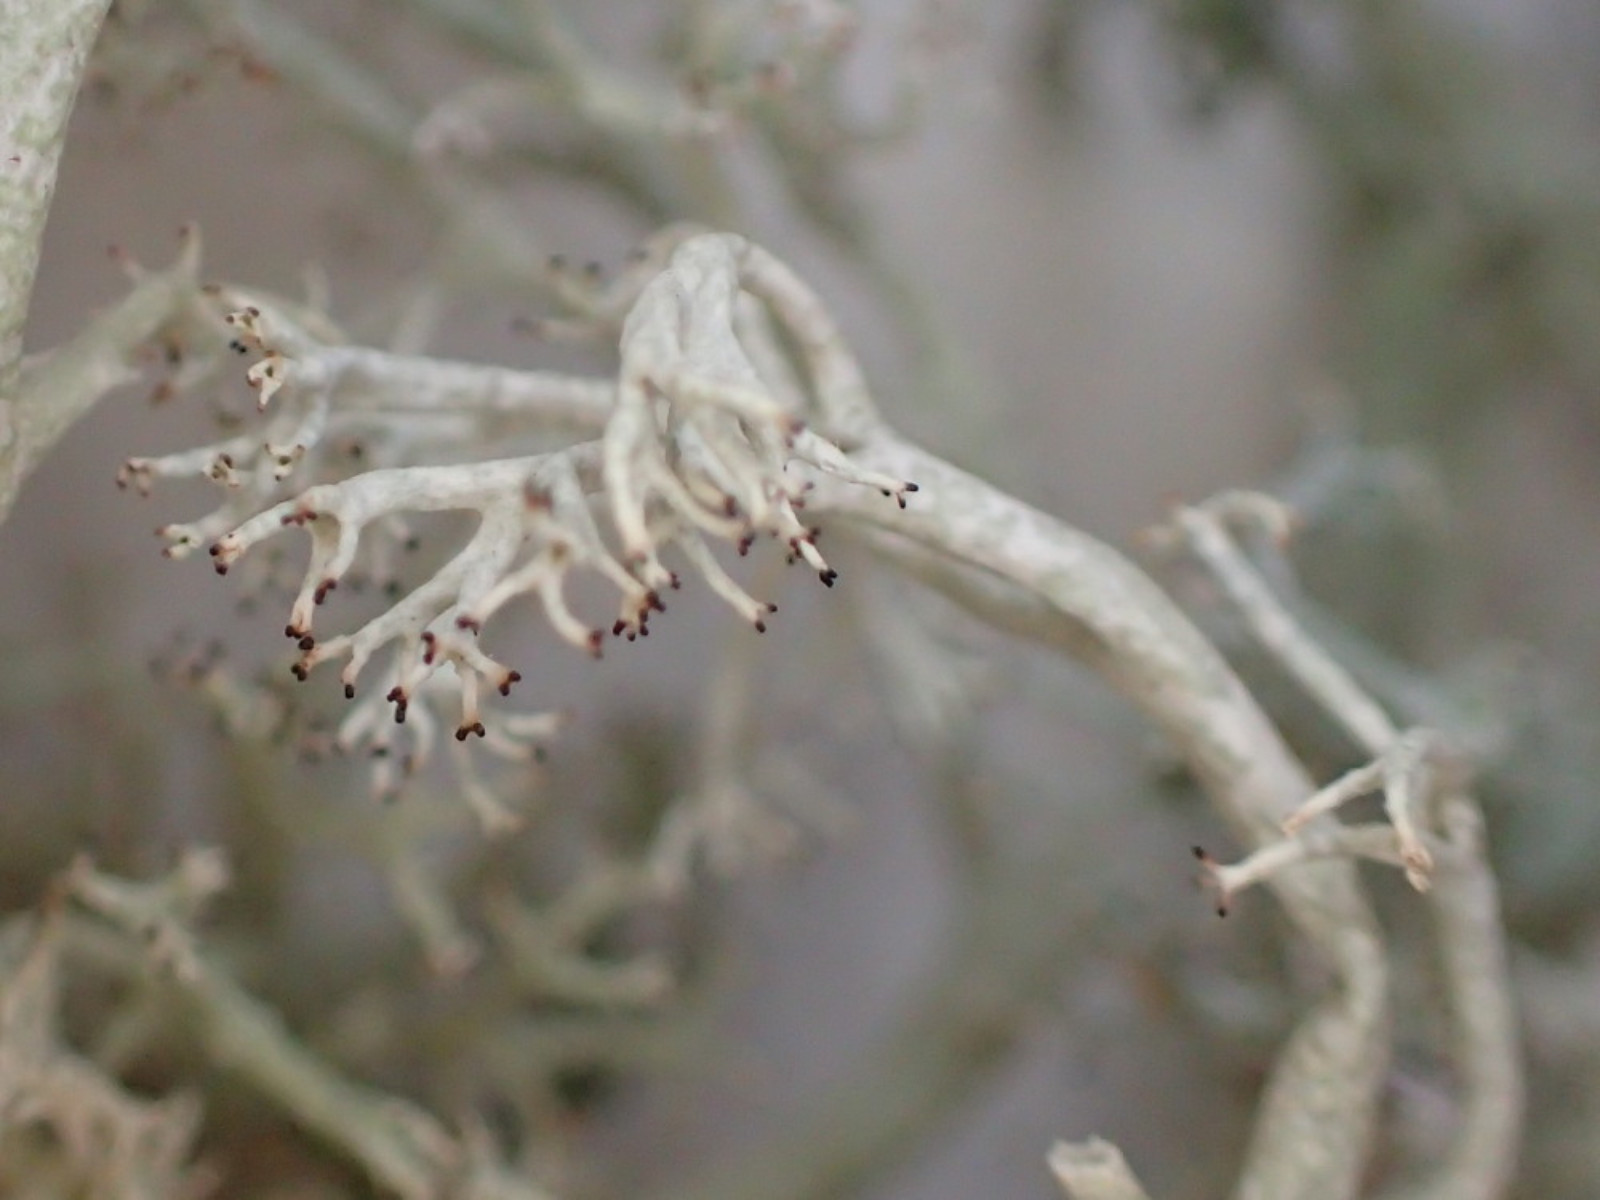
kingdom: Fungi
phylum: Ascomycota
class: Lecanoromycetes
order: Lecanorales
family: Cladoniaceae
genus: Cladonia
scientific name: Cladonia mitis
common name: mild rensdyrlav
